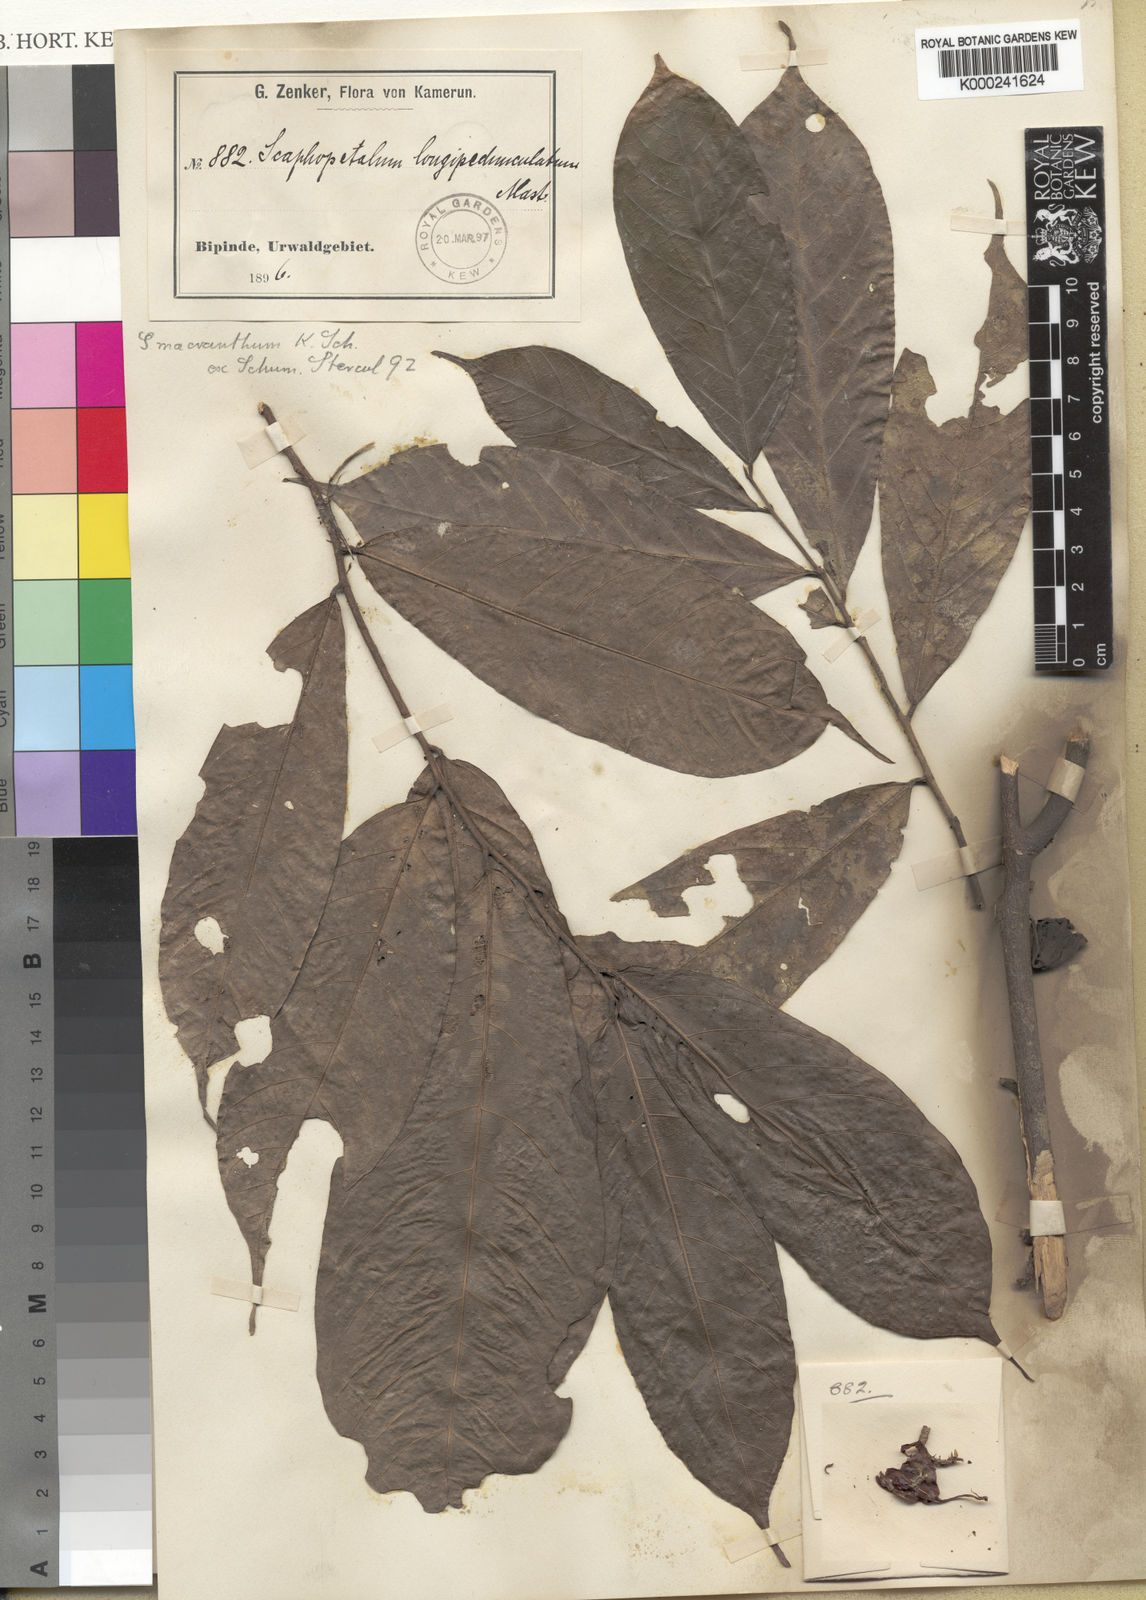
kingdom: Plantae
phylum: Tracheophyta
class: Magnoliopsida
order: Malvales
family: Malvaceae
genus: Scaphopetalum
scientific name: Scaphopetalum macranthum
